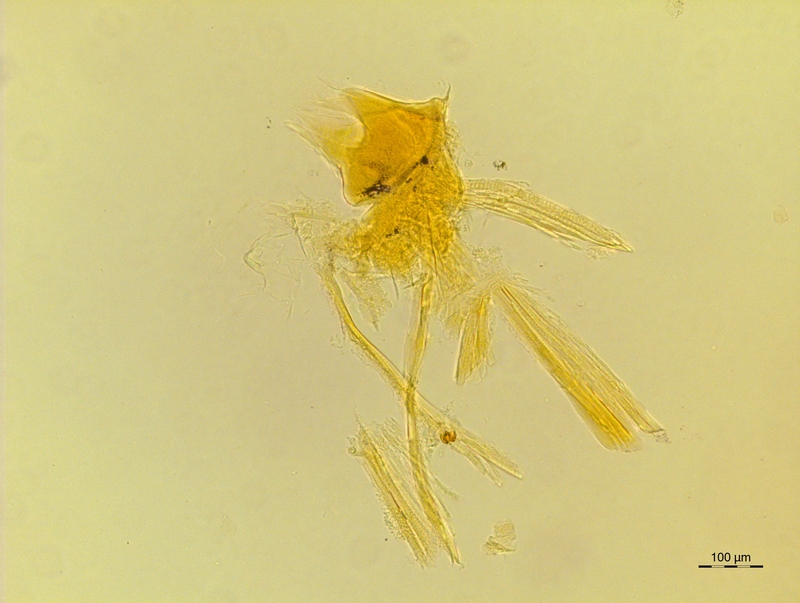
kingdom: Animalia
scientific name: Animalia
